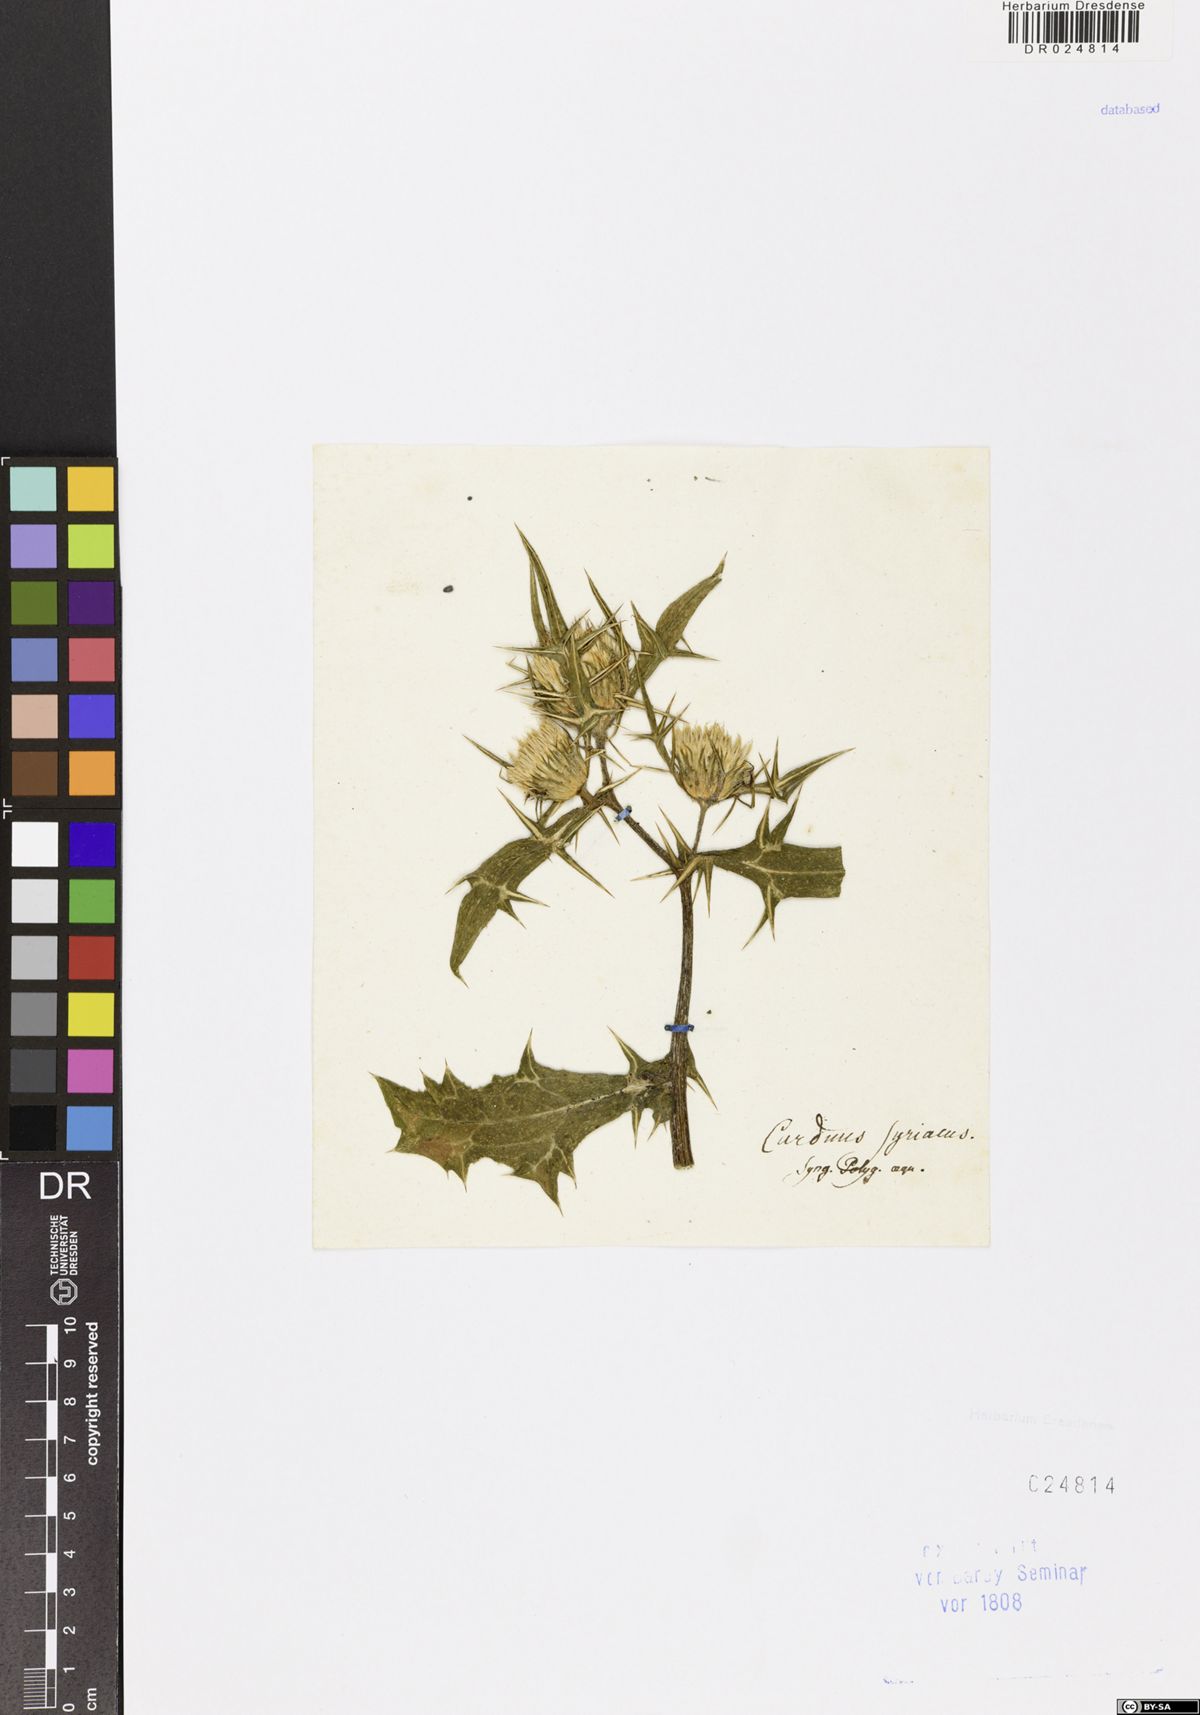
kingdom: Plantae
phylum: Tracheophyta
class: Magnoliopsida
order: Asterales
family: Asteraceae
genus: Notobasis
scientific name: Notobasis syriaca
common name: Syrian thistle
